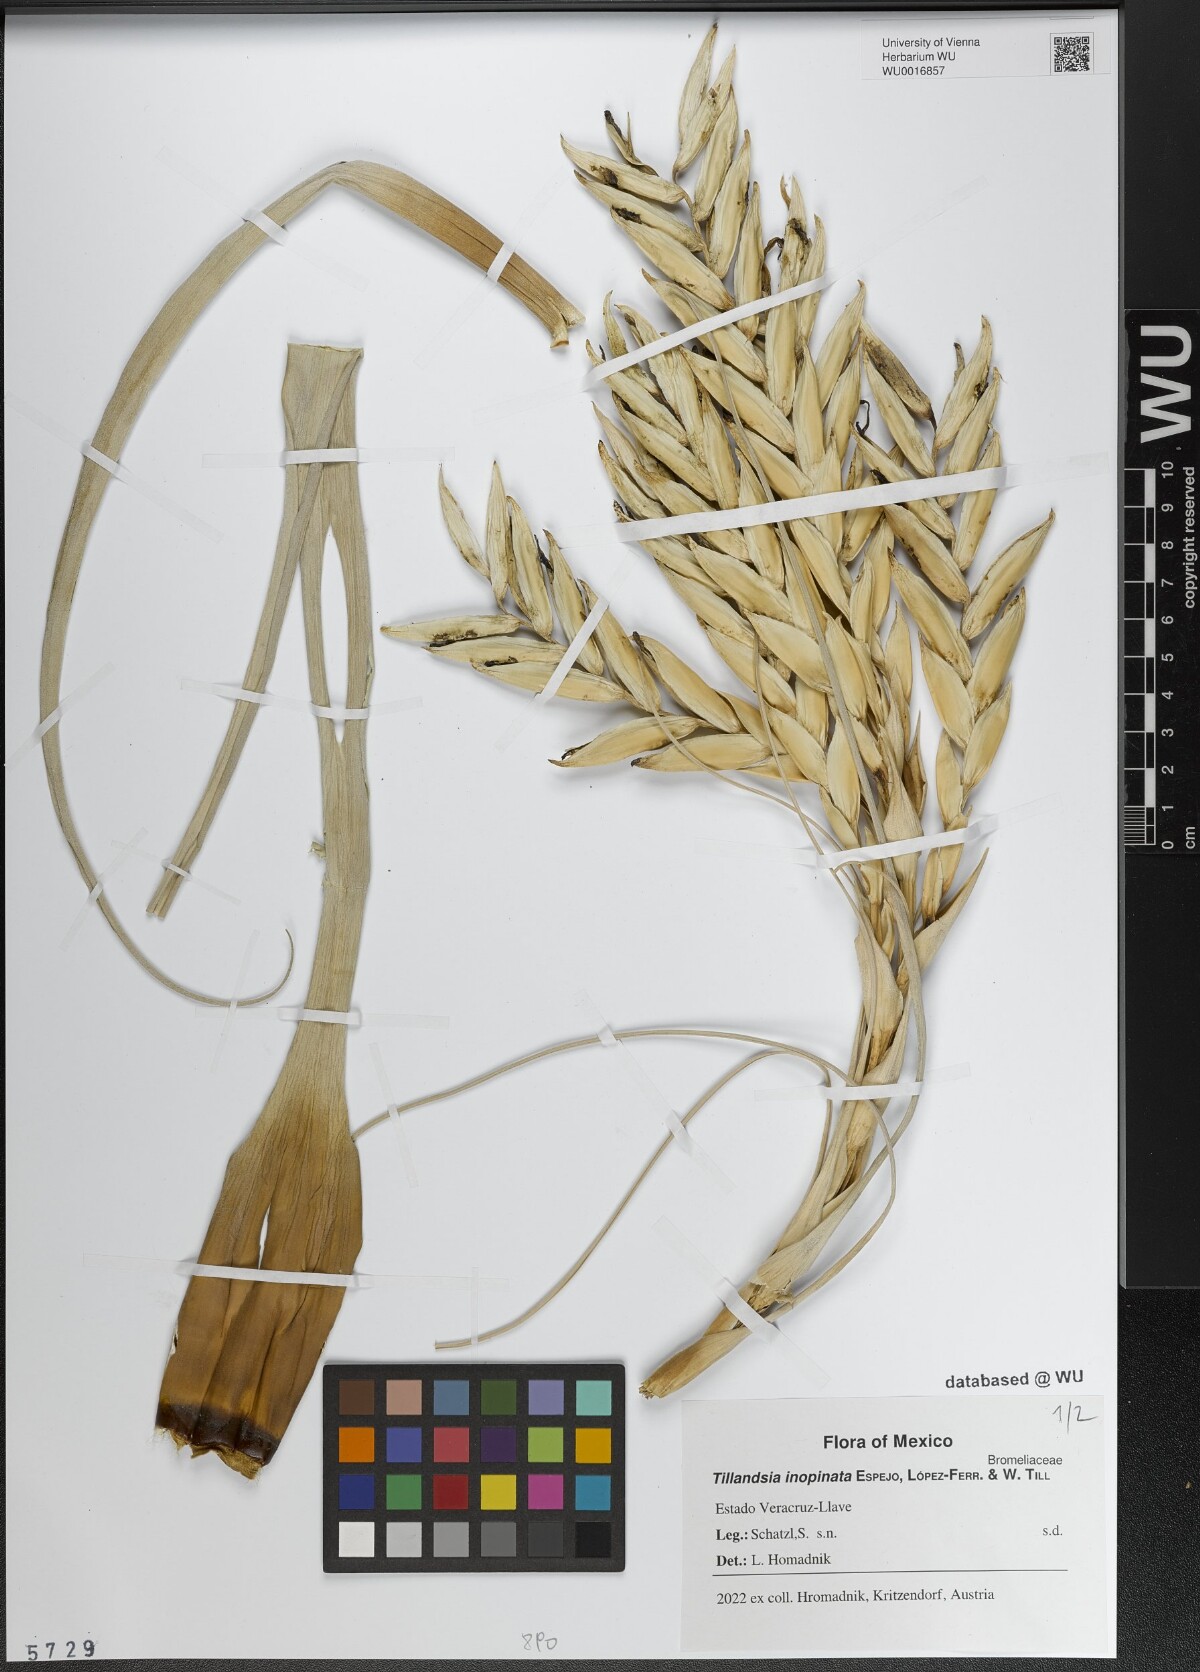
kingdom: Plantae
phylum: Tracheophyta
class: Liliopsida
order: Poales
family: Bromeliaceae
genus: Tillandsia
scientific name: Tillandsia inopinata
